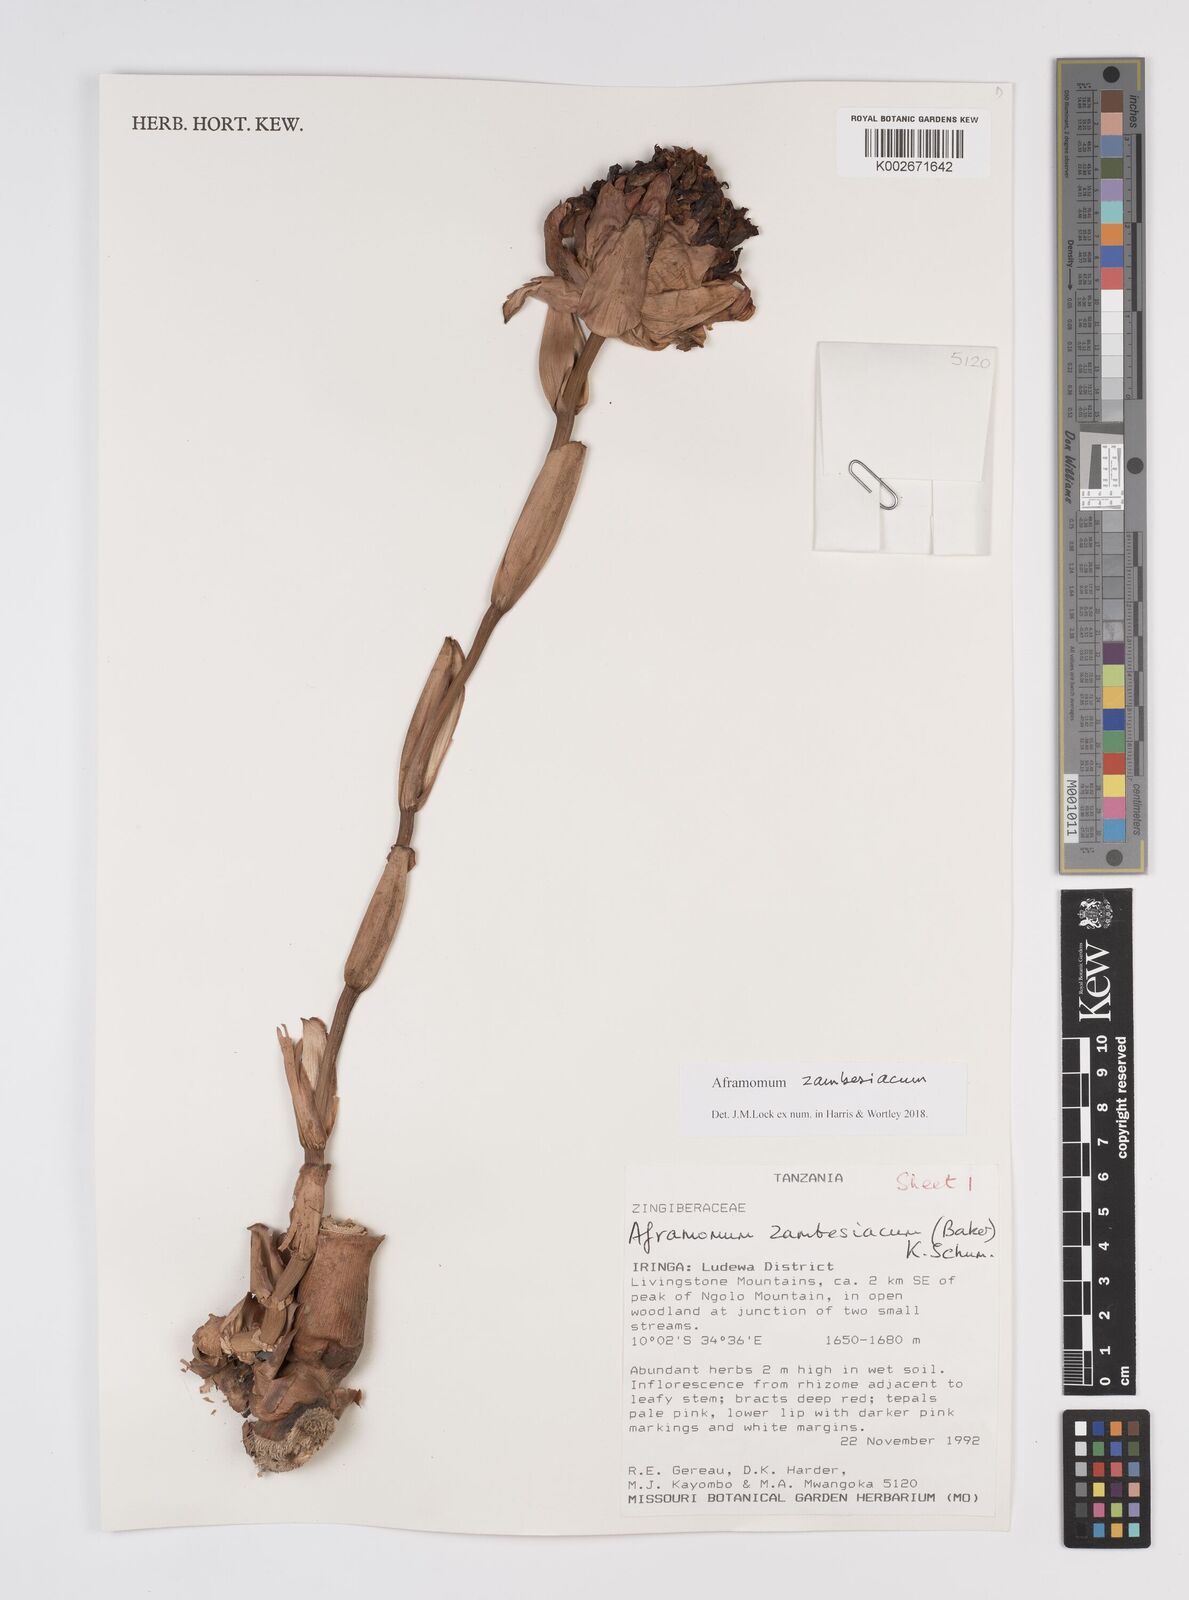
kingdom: Plantae
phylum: Tracheophyta
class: Liliopsida
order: Zingiberales
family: Zingiberaceae
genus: Aframomum
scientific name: Aframomum zambesiacum
